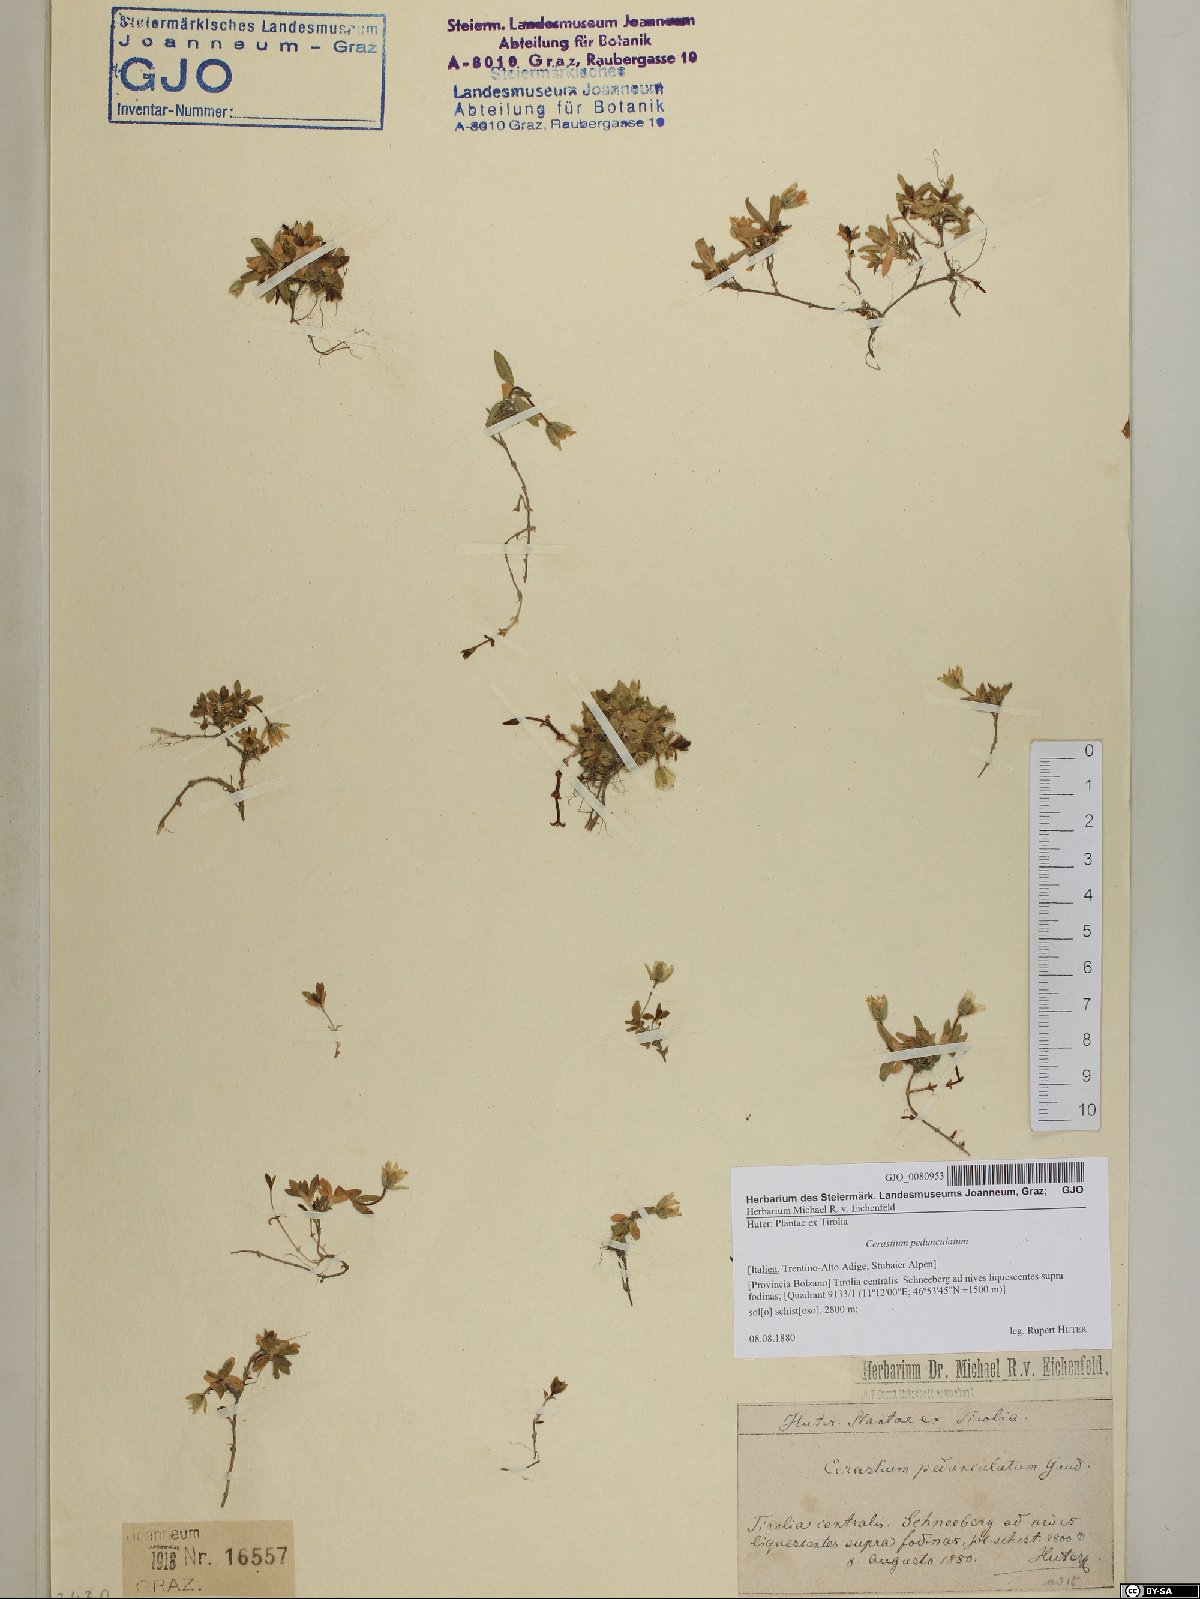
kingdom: Plantae
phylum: Tracheophyta
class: Magnoliopsida
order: Caryophyllales
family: Caryophyllaceae
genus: Cerastium
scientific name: Cerastium pedunculatum
